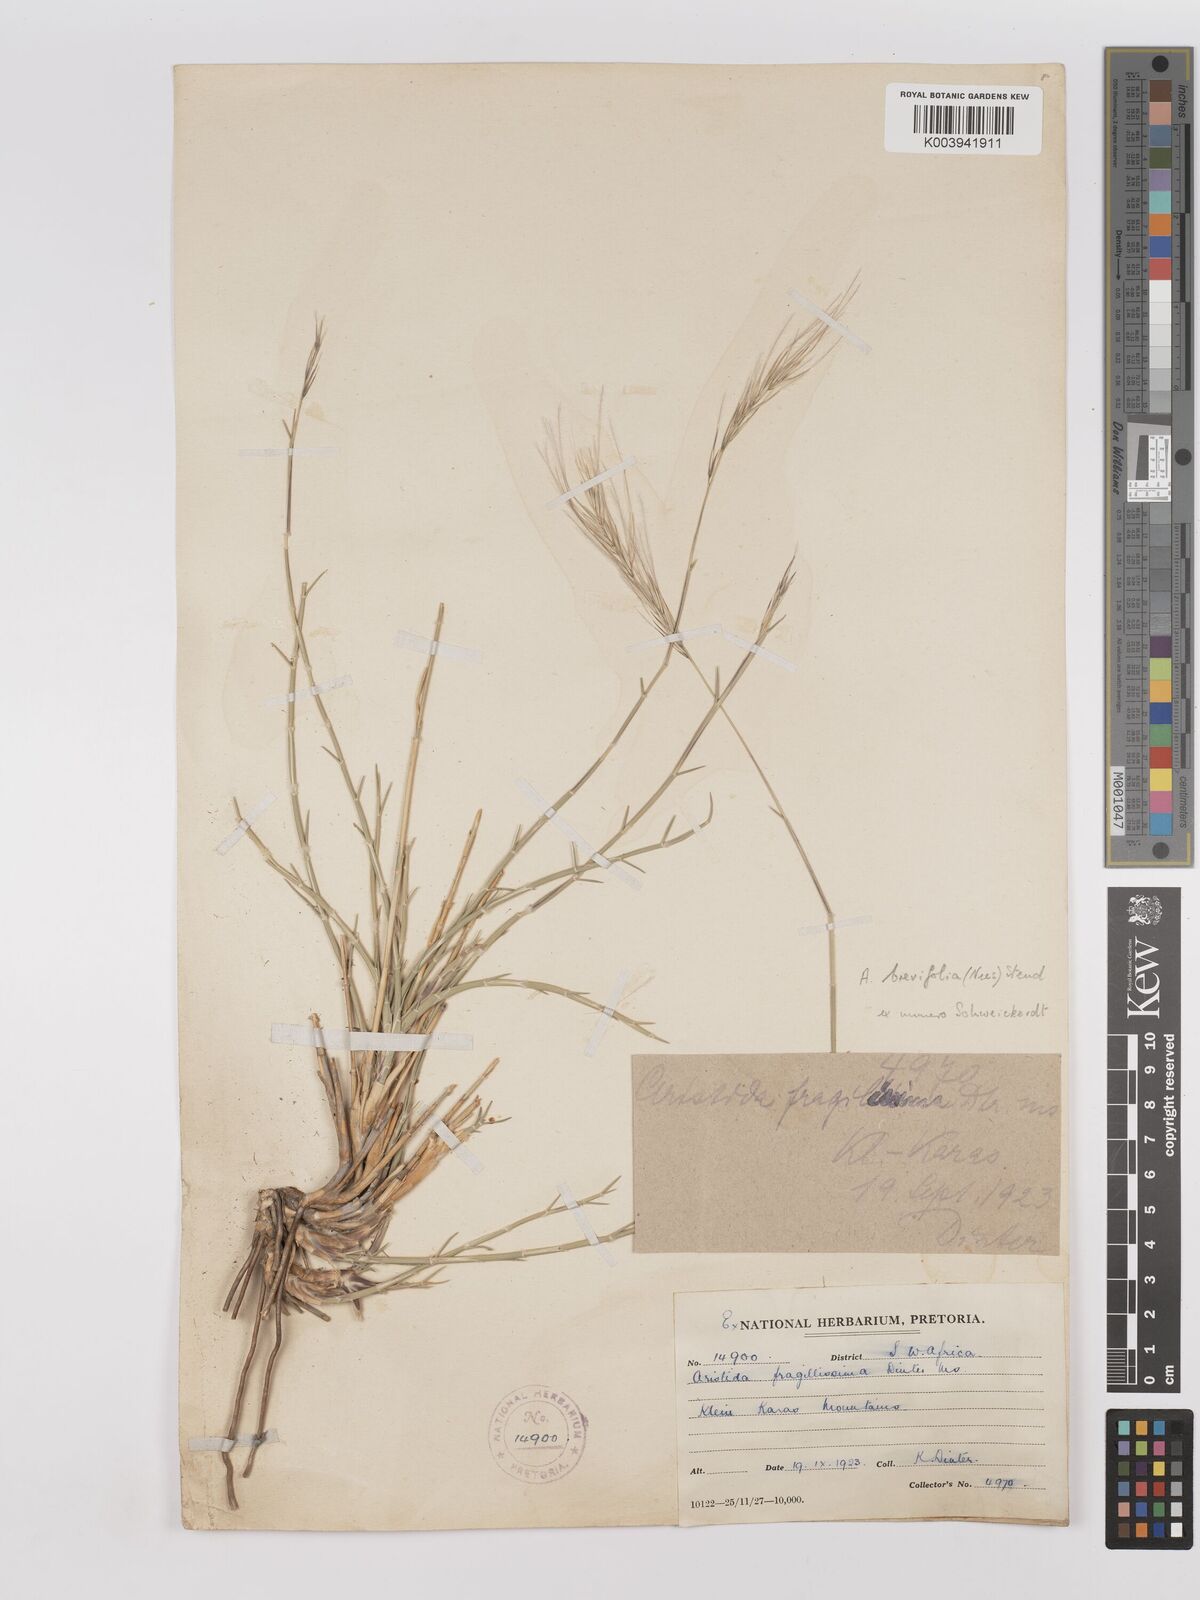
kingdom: Plantae
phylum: Tracheophyta
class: Liliopsida
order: Poales
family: Poaceae
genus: Stipagrostis
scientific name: Stipagrostis brevifolia
